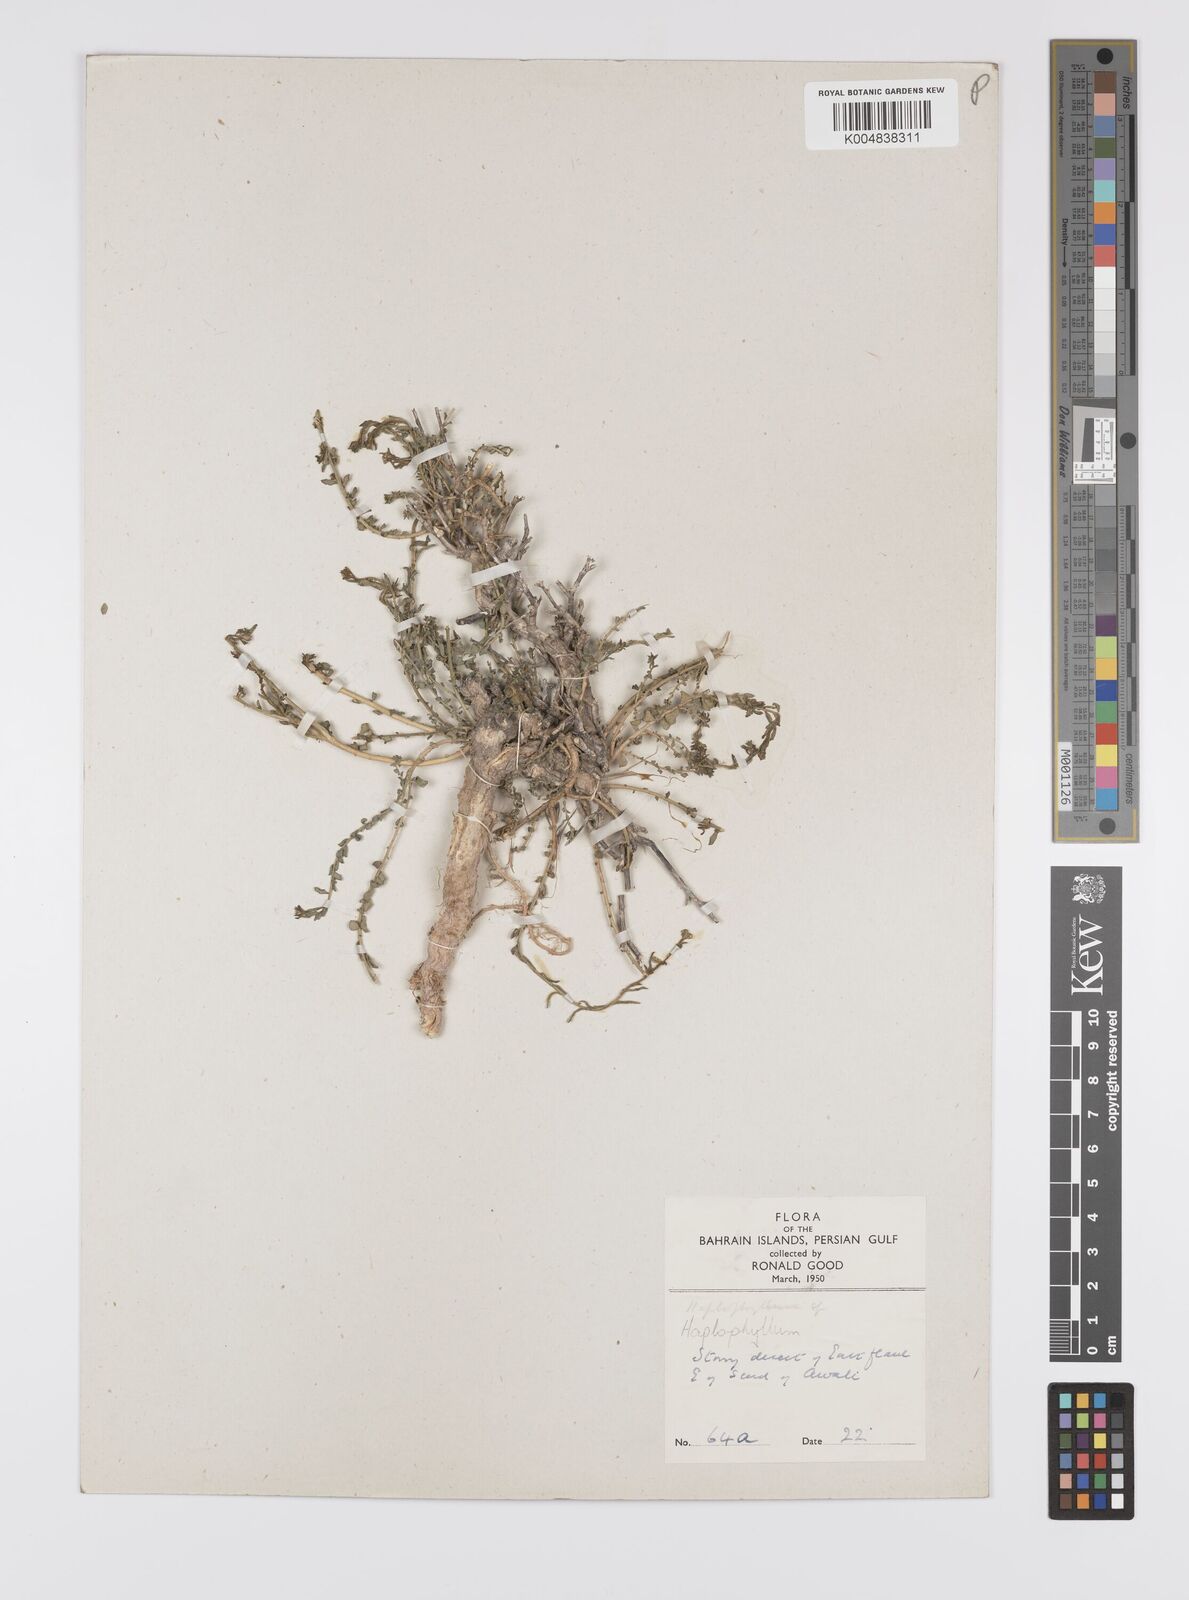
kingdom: Plantae
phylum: Tracheophyta
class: Magnoliopsida
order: Sapindales
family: Rutaceae
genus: Haplophyllum
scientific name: Haplophyllum tuberculatum
